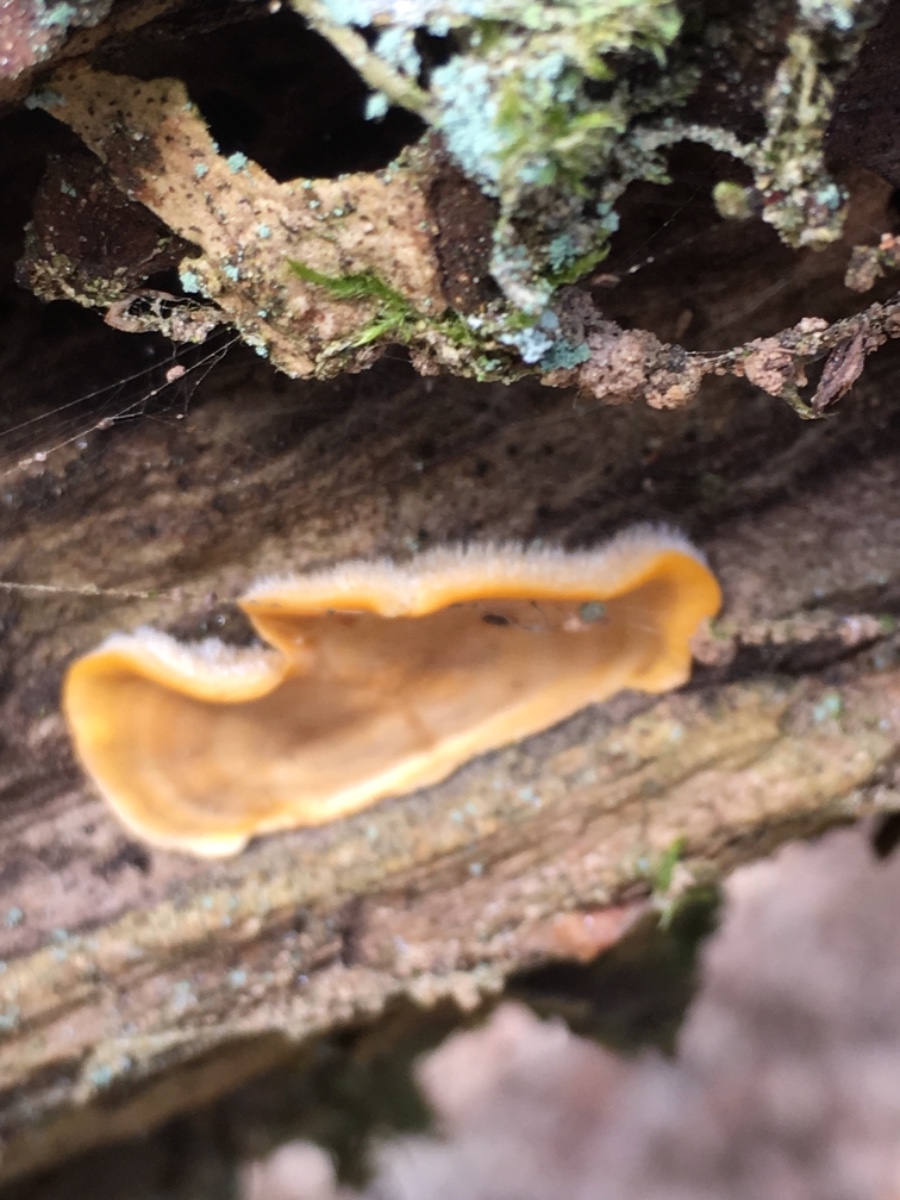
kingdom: Fungi
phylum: Basidiomycota
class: Agaricomycetes
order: Russulales
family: Stereaceae
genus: Stereum
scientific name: Stereum hirsutum
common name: håret lædersvamp
